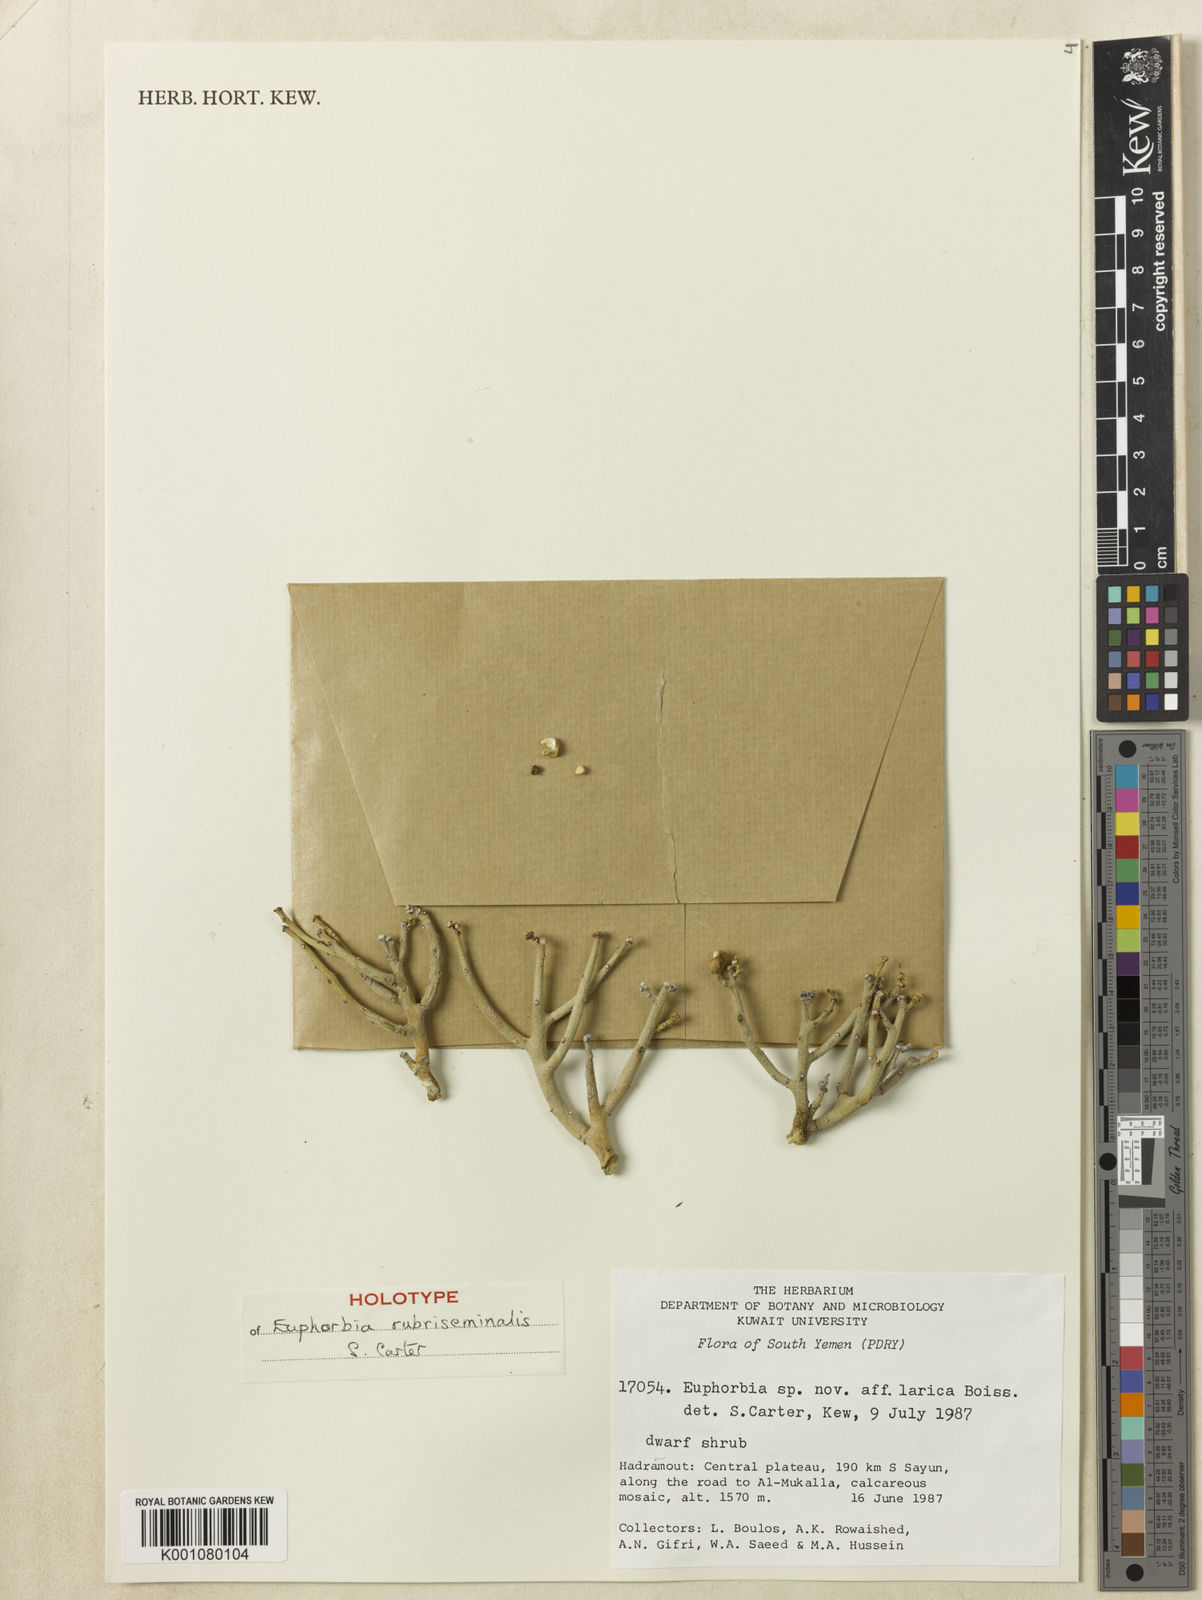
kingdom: Plantae
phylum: Tracheophyta
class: Magnoliopsida
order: Malpighiales
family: Euphorbiaceae
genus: Euphorbia
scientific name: Euphorbia
